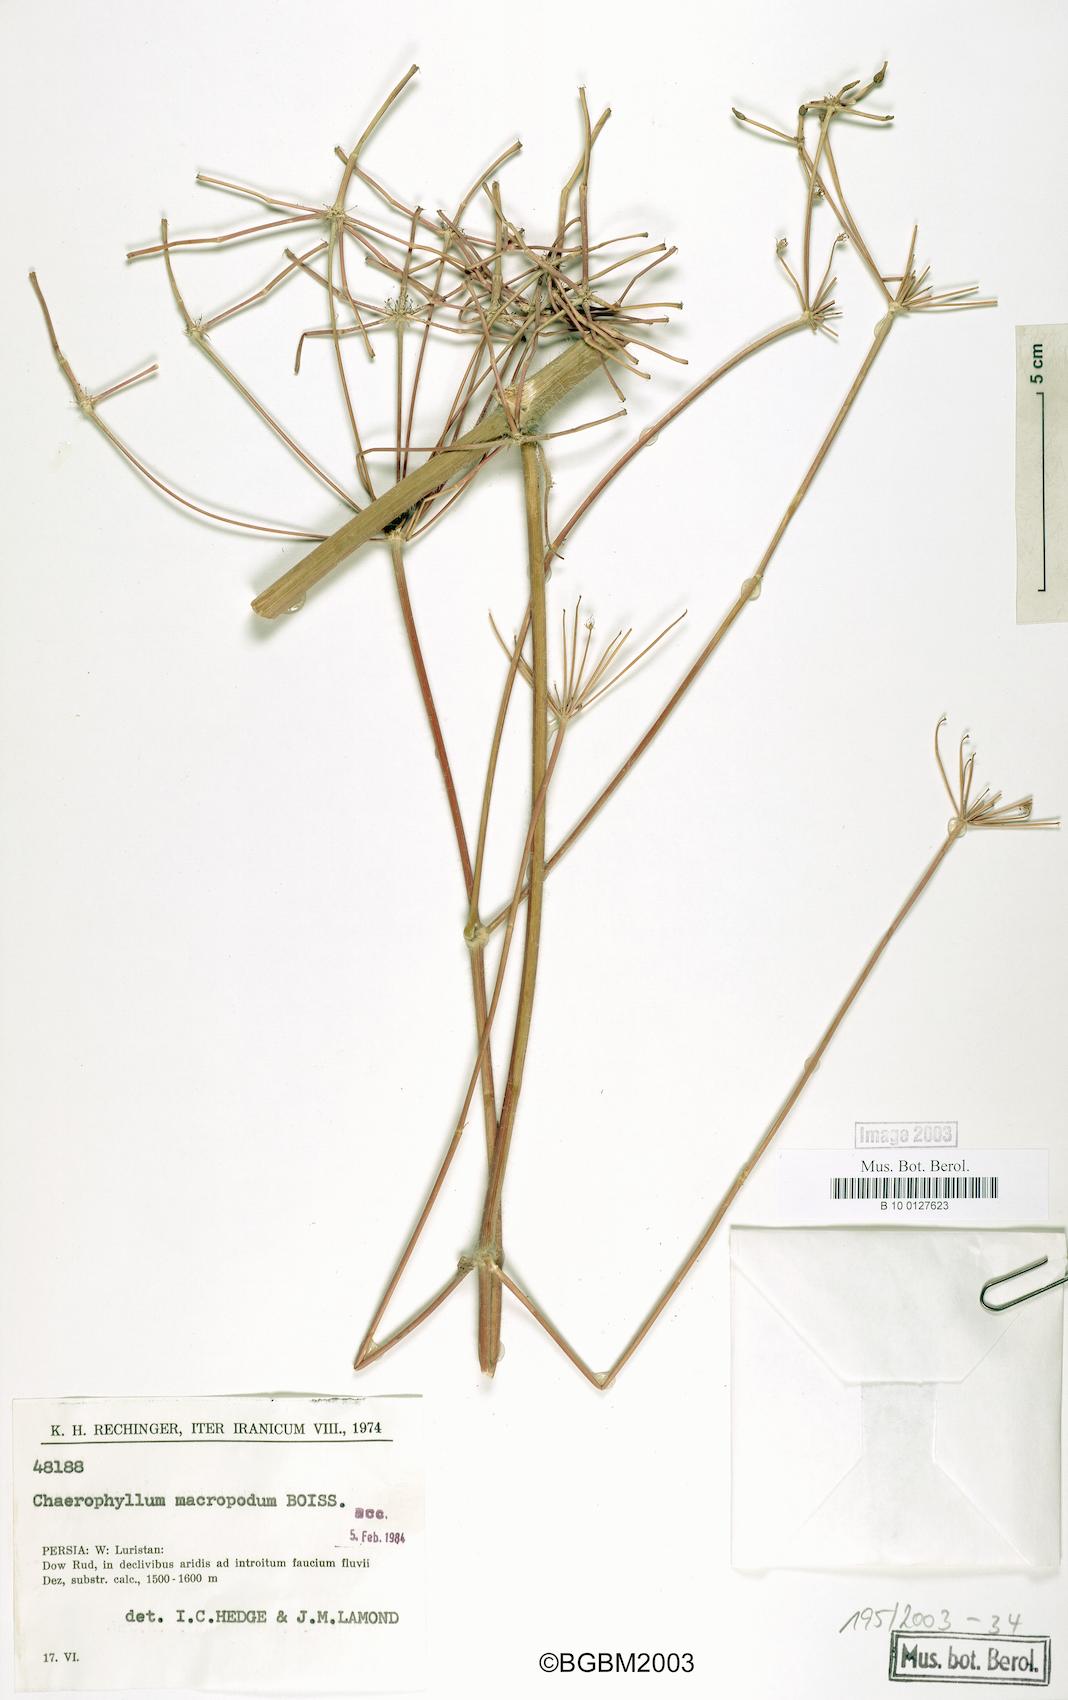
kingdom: Plantae
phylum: Tracheophyta
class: Magnoliopsida
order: Apiales
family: Apiaceae
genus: Chaerophyllum
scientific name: Chaerophyllum macropodum
